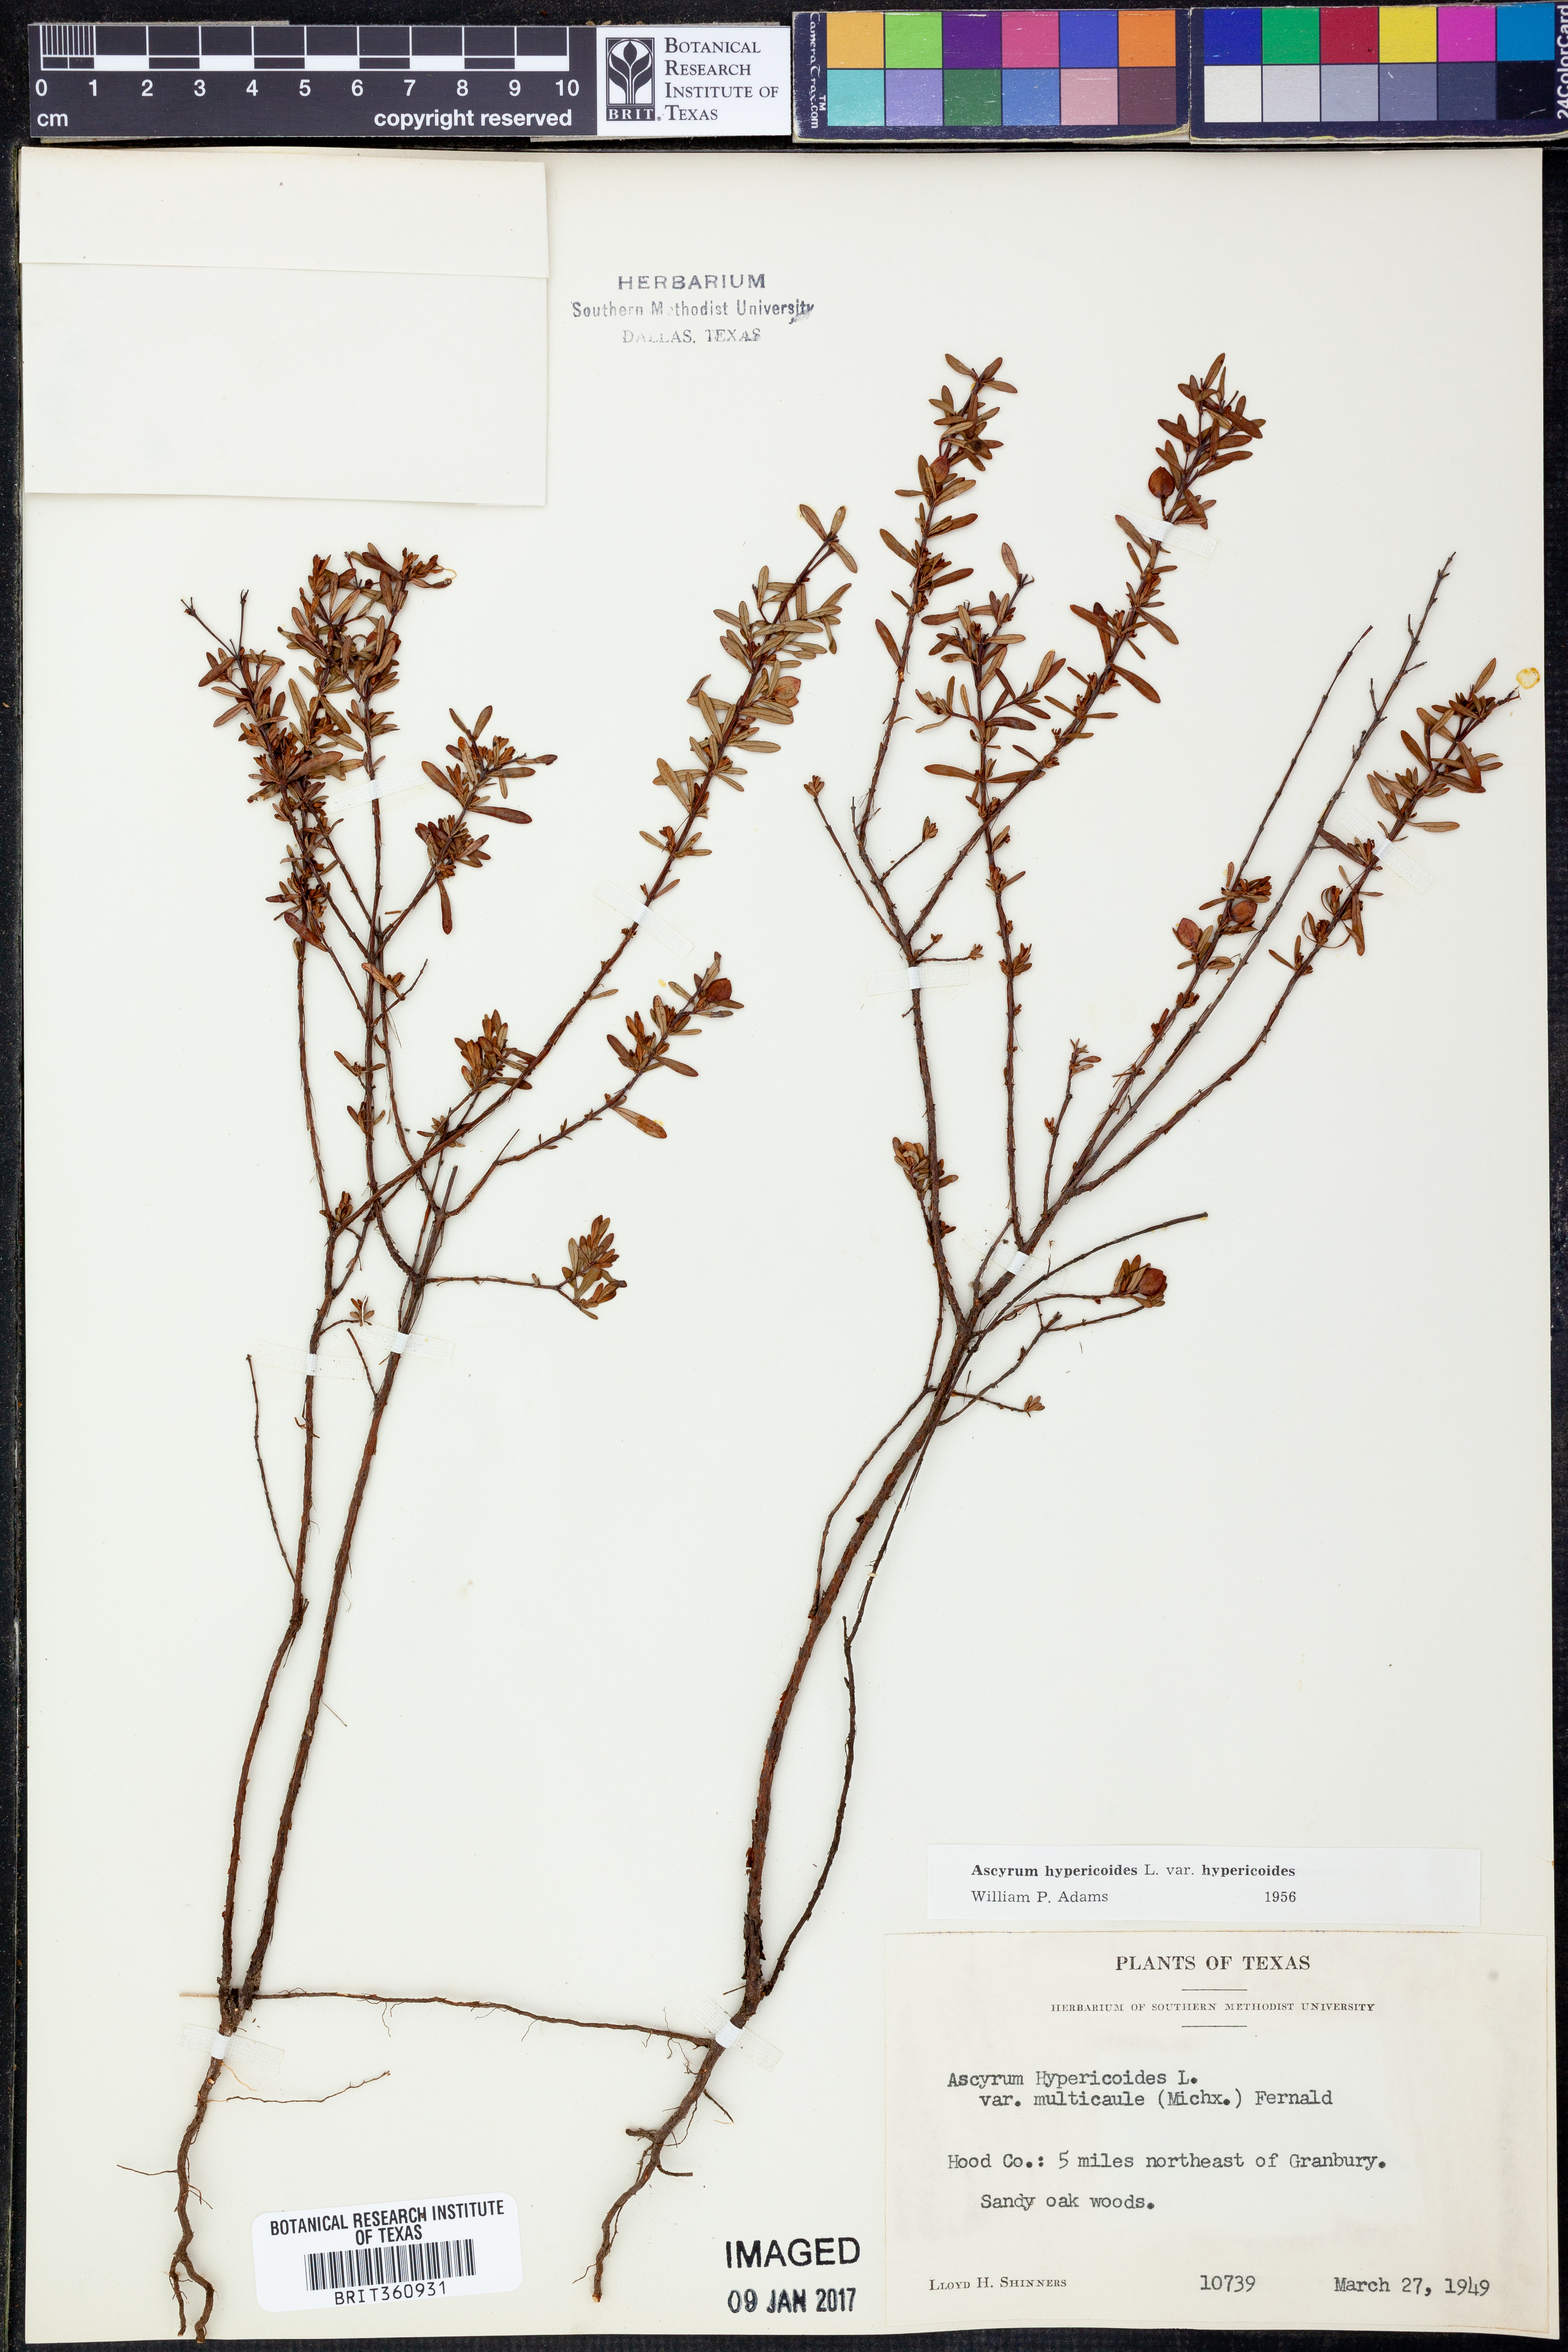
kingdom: Plantae
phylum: Tracheophyta
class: Magnoliopsida
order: Malpighiales
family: Hypericaceae
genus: Hypericum
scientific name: Hypericum hypericoides
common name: St. andrew's cross
